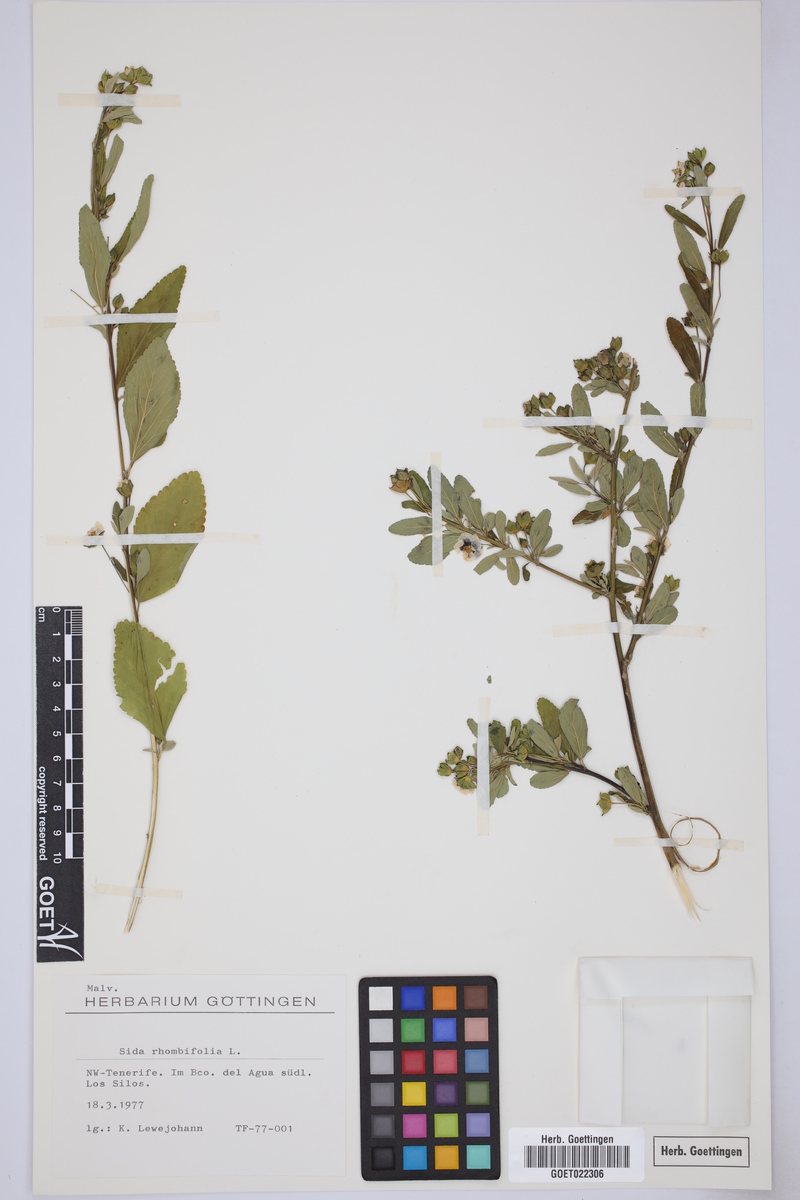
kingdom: Plantae
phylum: Tracheophyta
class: Magnoliopsida
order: Malvales
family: Malvaceae
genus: Sida
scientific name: Sida rhombifolia
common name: Queensland-hemp
